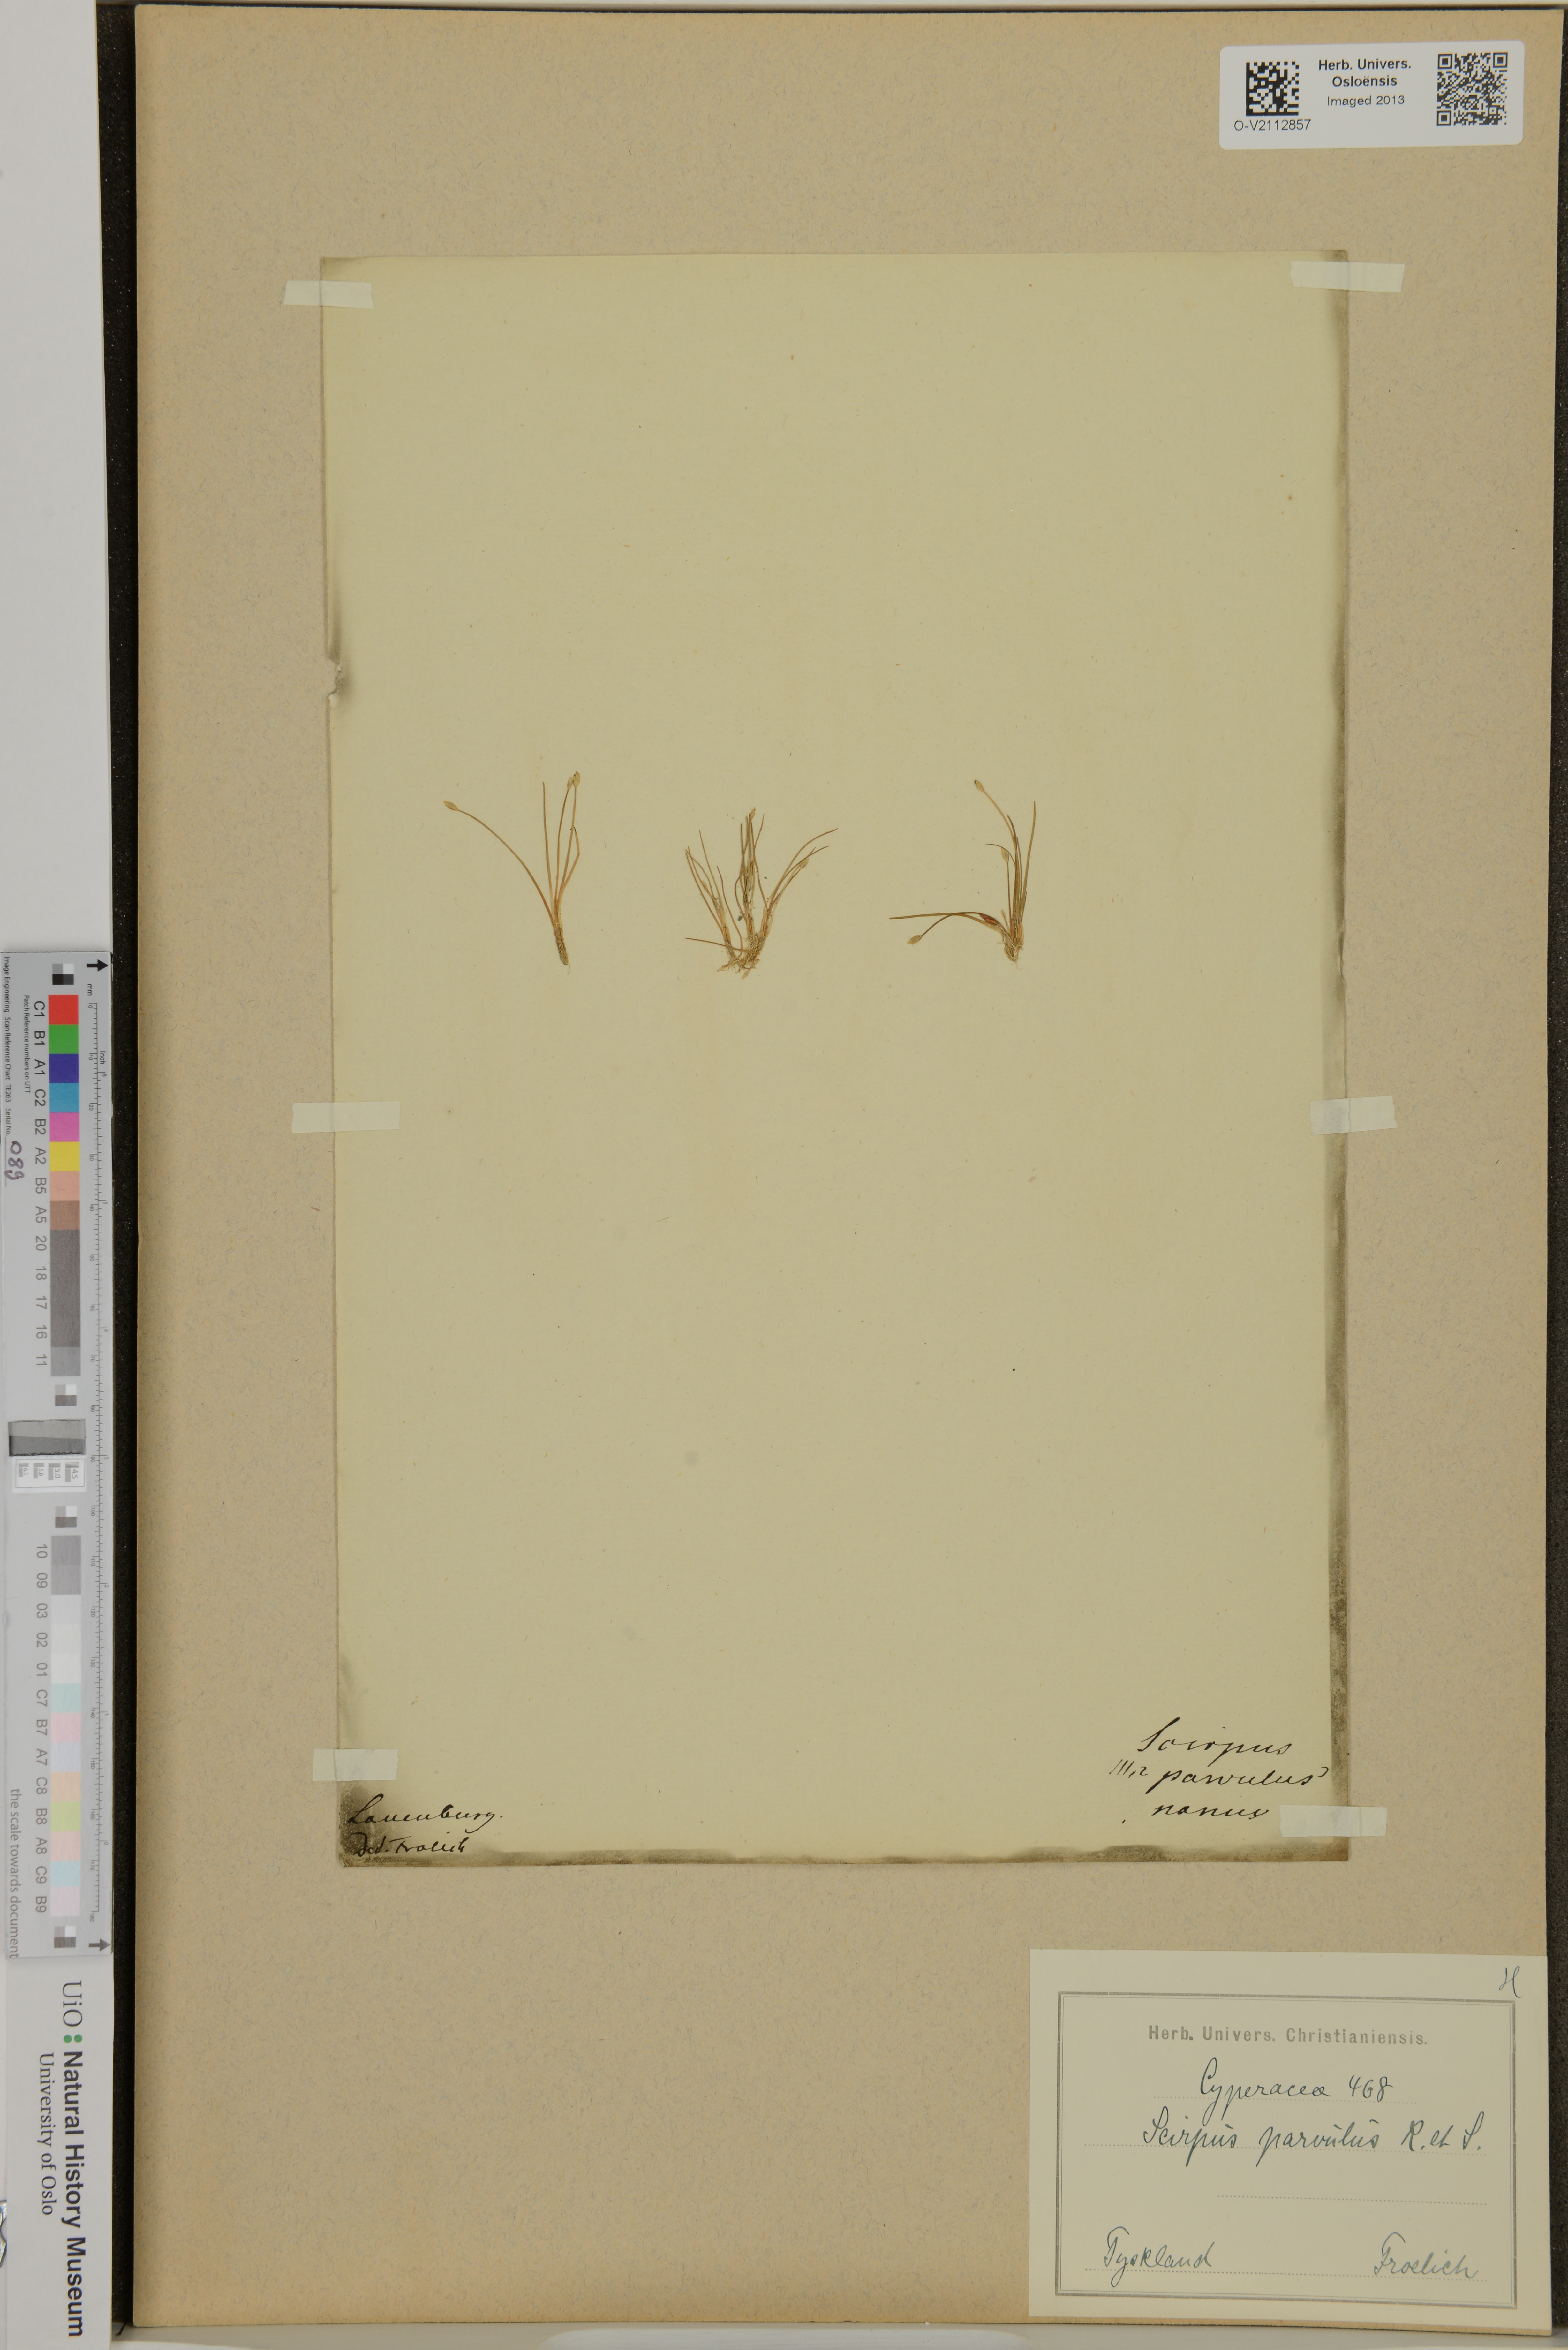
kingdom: Plantae
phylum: Tracheophyta
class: Liliopsida
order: Poales
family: Cyperaceae
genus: Eleocharis
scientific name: Eleocharis parvula
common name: Dwarf spike-rush
